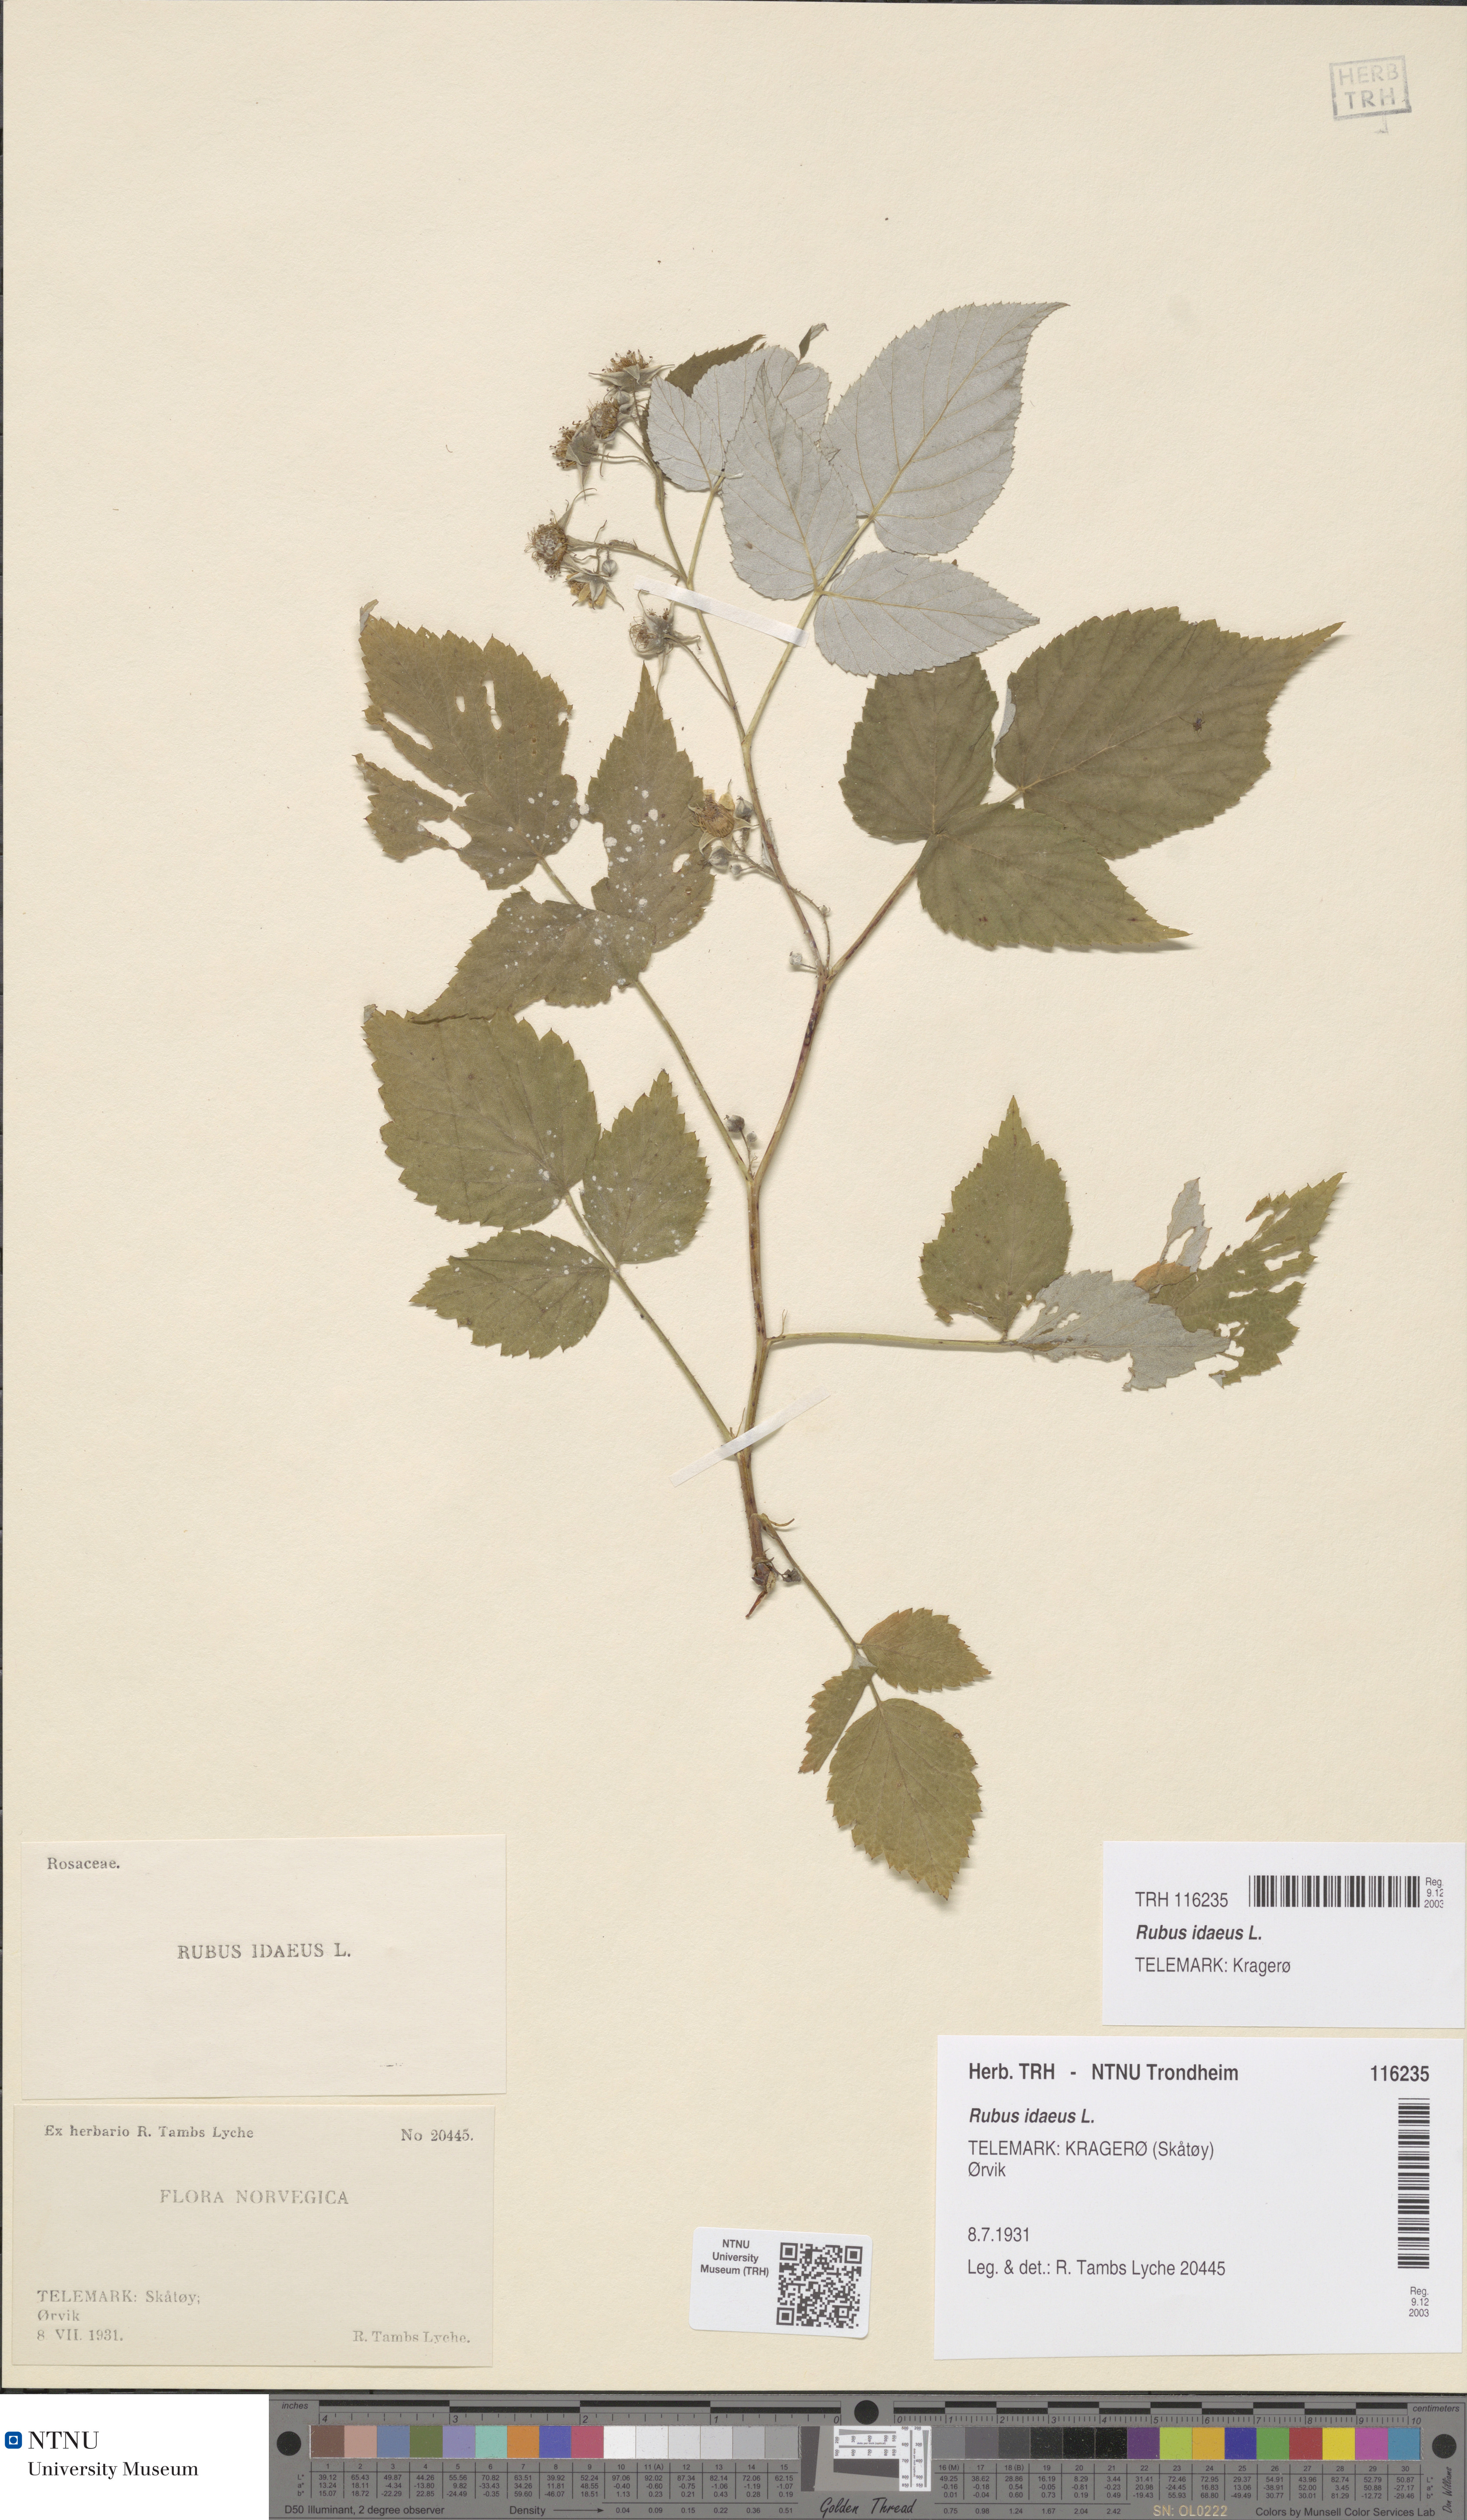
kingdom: Plantae
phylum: Tracheophyta
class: Magnoliopsida
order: Rosales
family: Rosaceae
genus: Rubus
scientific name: Rubus idaeus
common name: Raspberry
